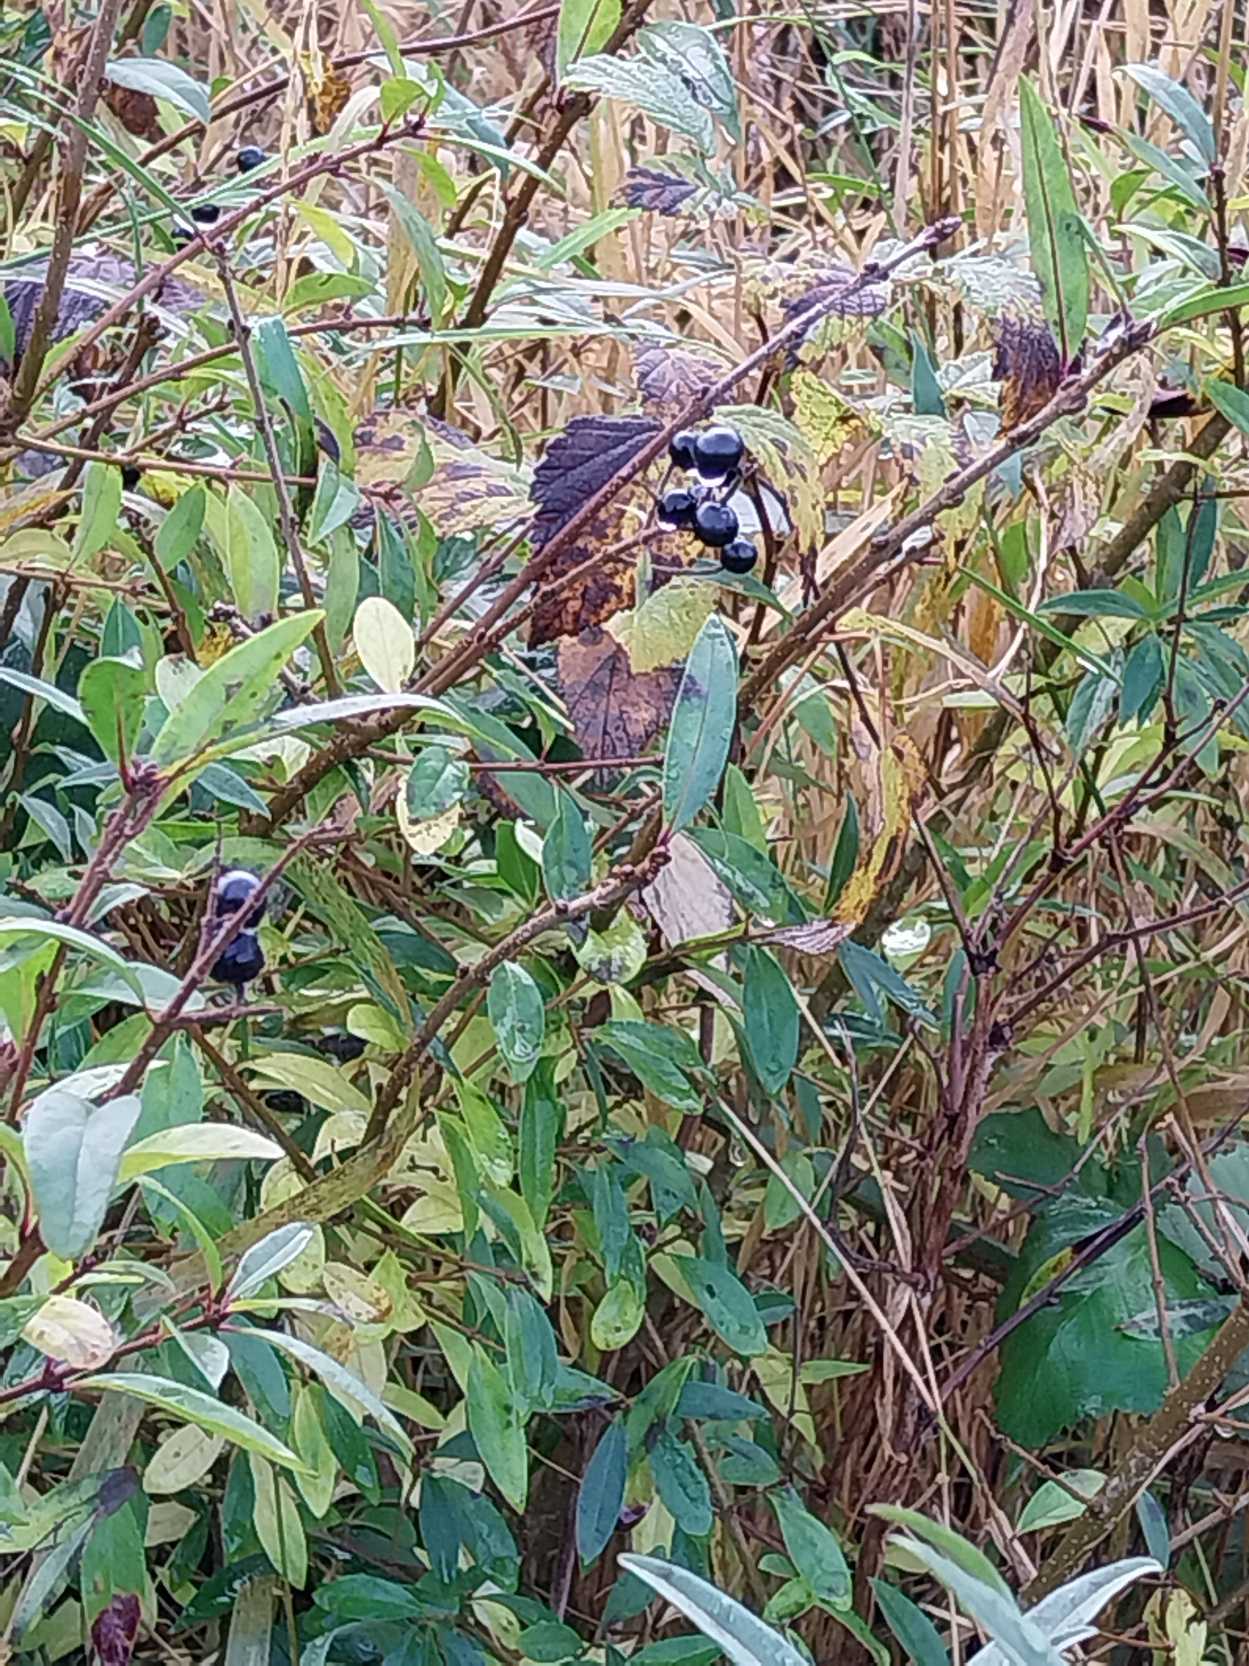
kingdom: Plantae
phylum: Tracheophyta
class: Magnoliopsida
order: Lamiales
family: Oleaceae
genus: Ligustrum
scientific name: Ligustrum vulgare
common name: Liguster
